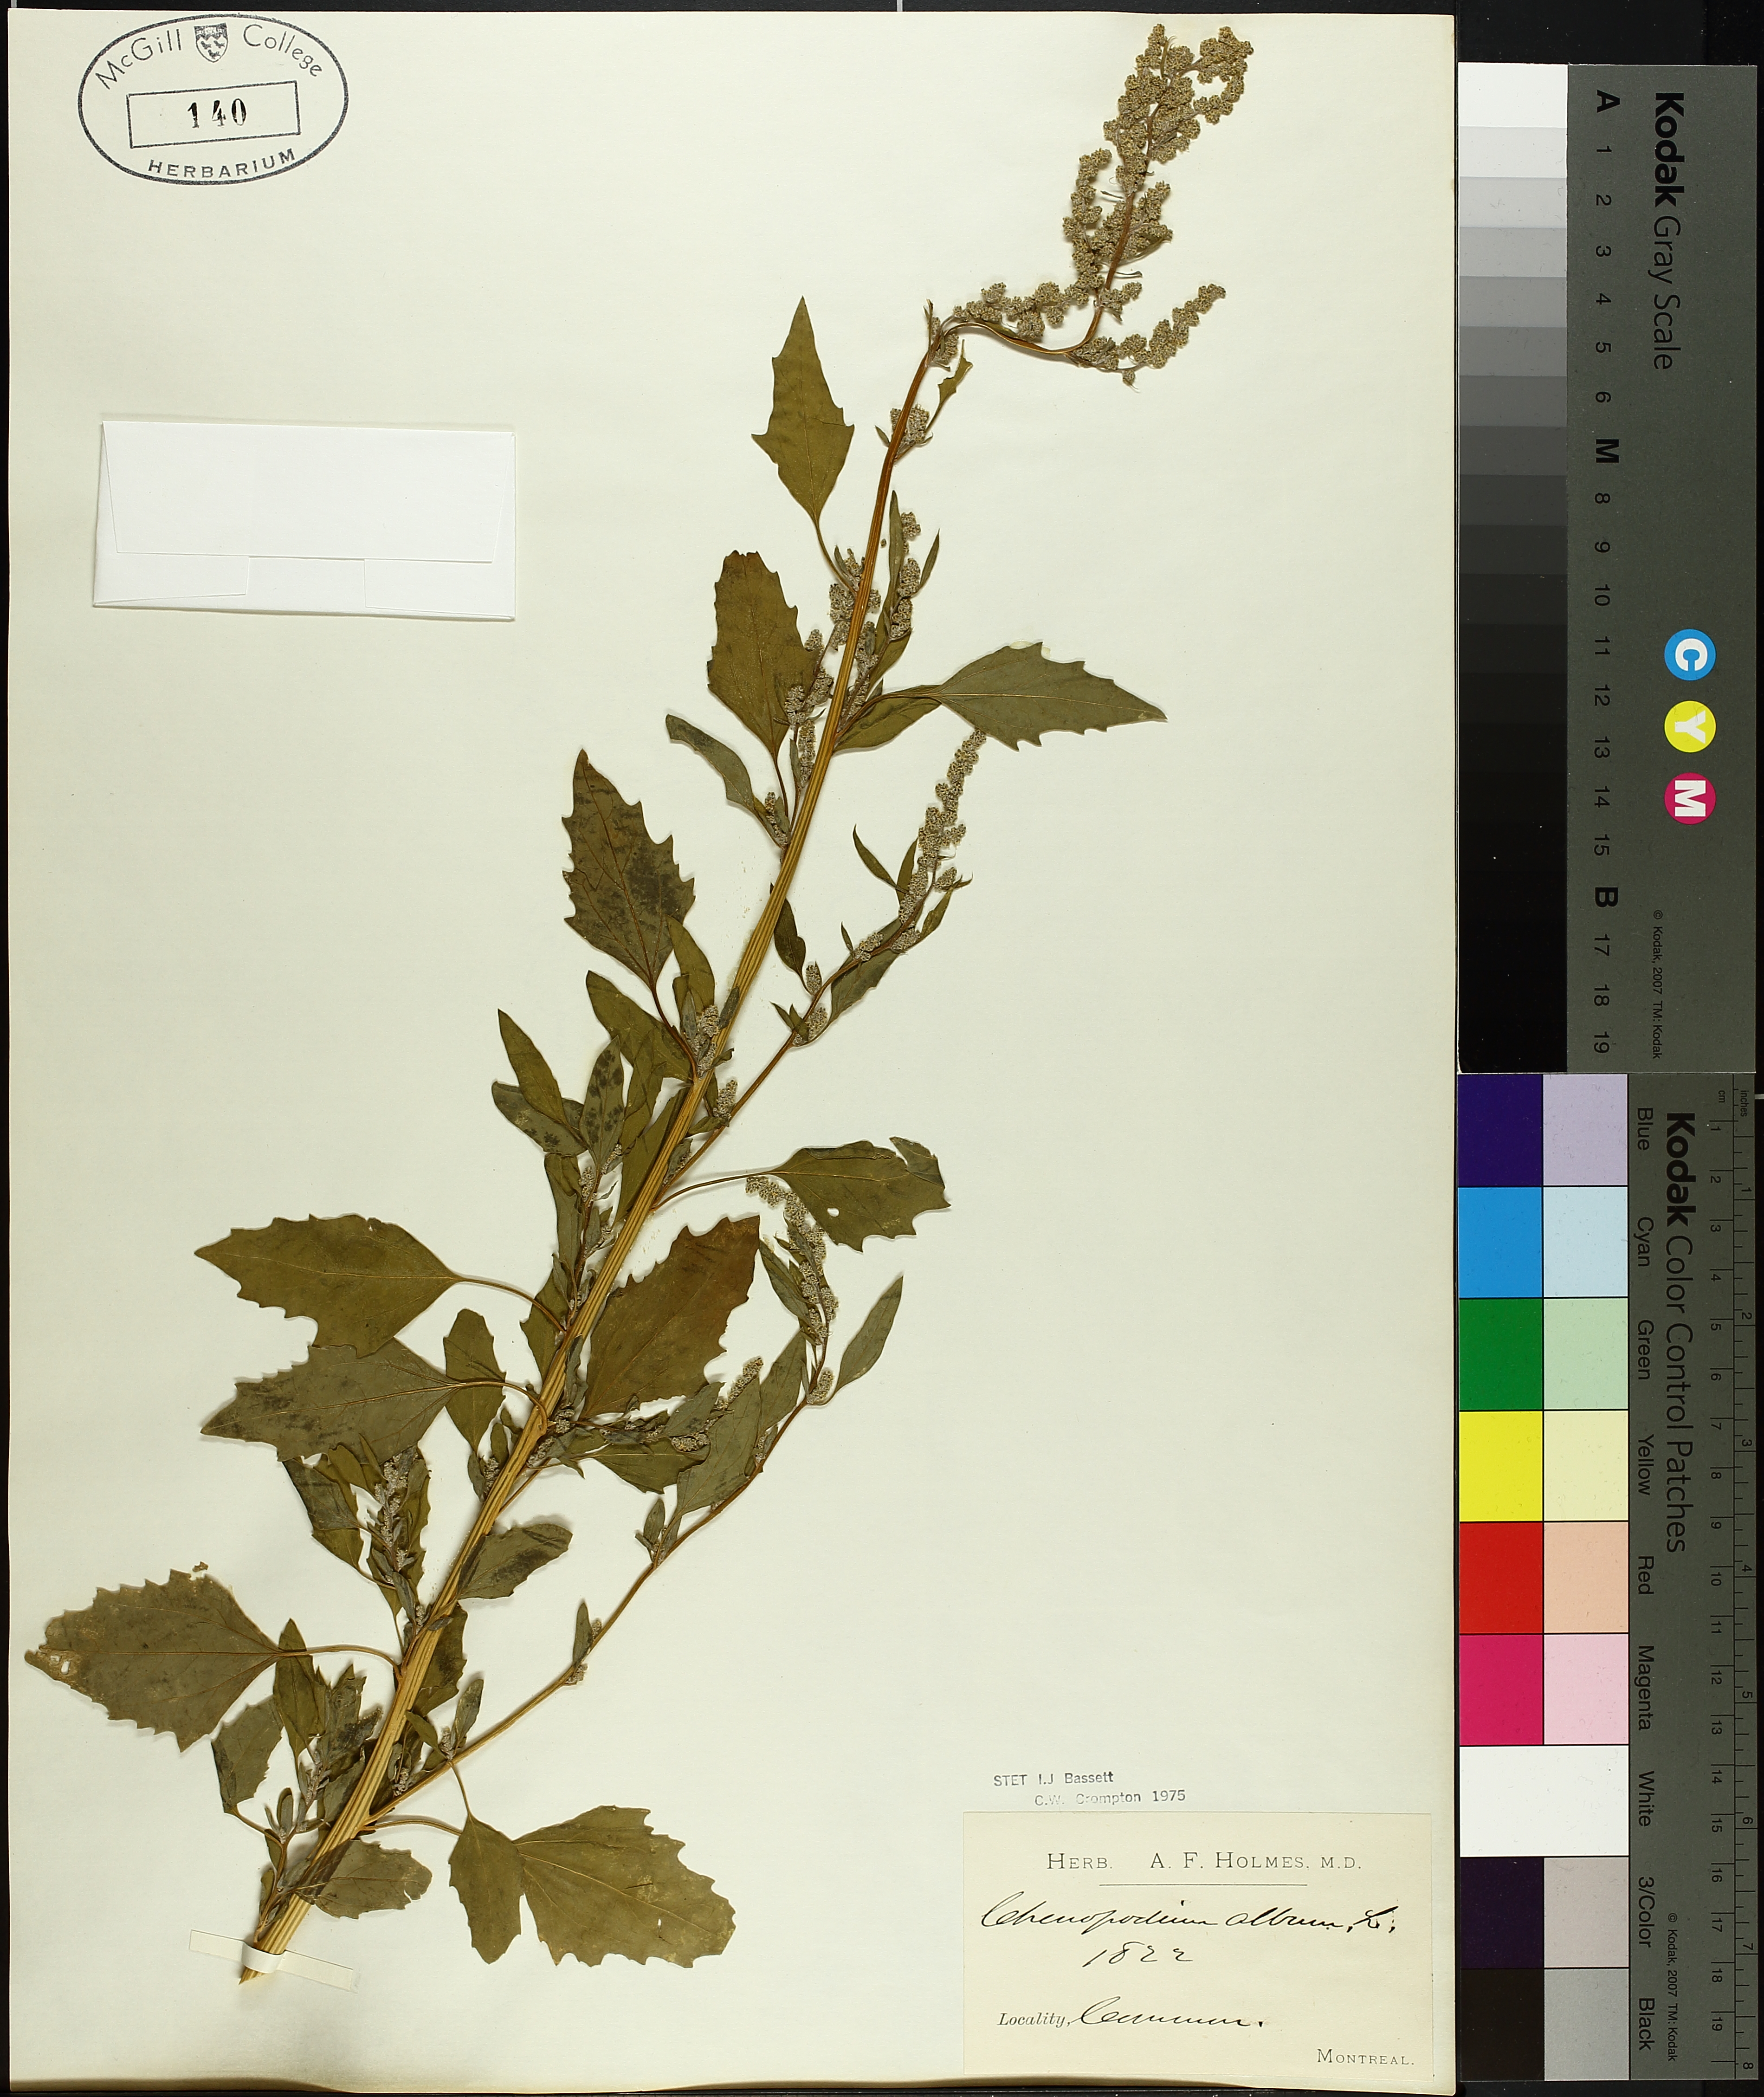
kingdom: Plantae
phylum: Tracheophyta
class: Magnoliopsida
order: Caryophyllales
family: Amaranthaceae
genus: Chenopodium
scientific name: Chenopodium album
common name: Fat-hen
